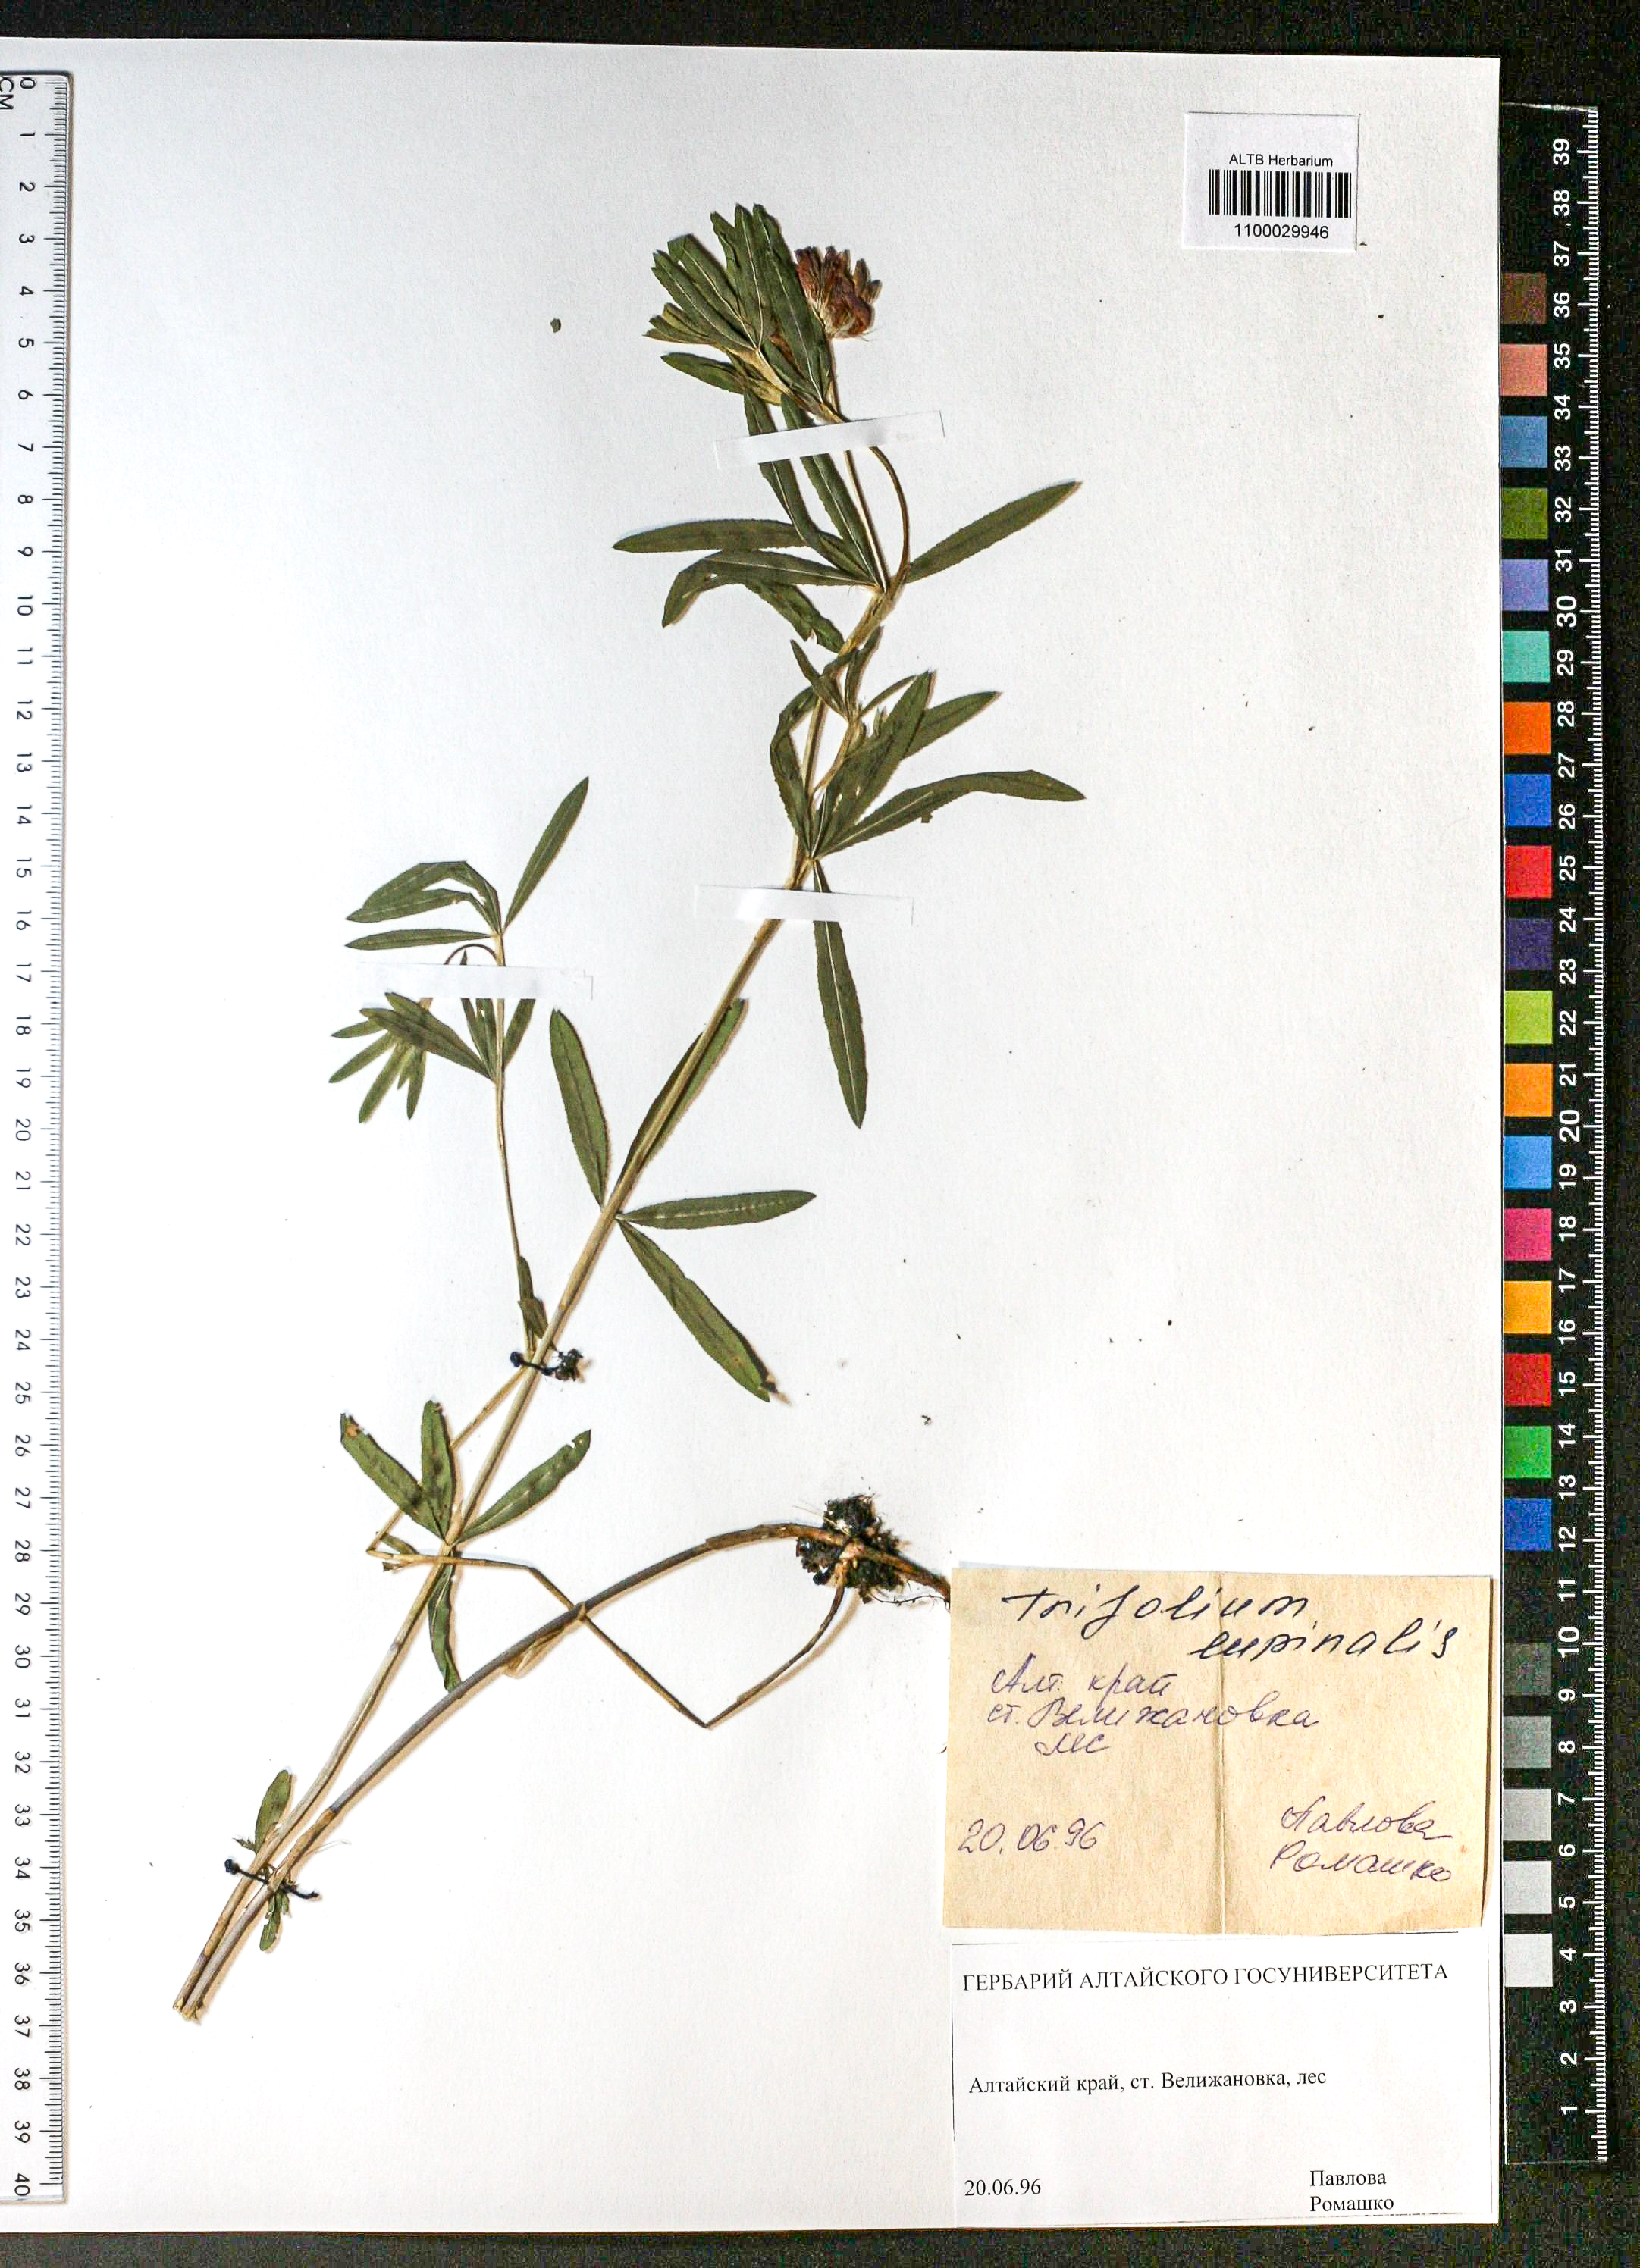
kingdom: Plantae
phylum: Tracheophyta
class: Magnoliopsida
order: Fabales
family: Fabaceae
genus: Trifolium
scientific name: Trifolium lupinaster
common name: Lupine clover
